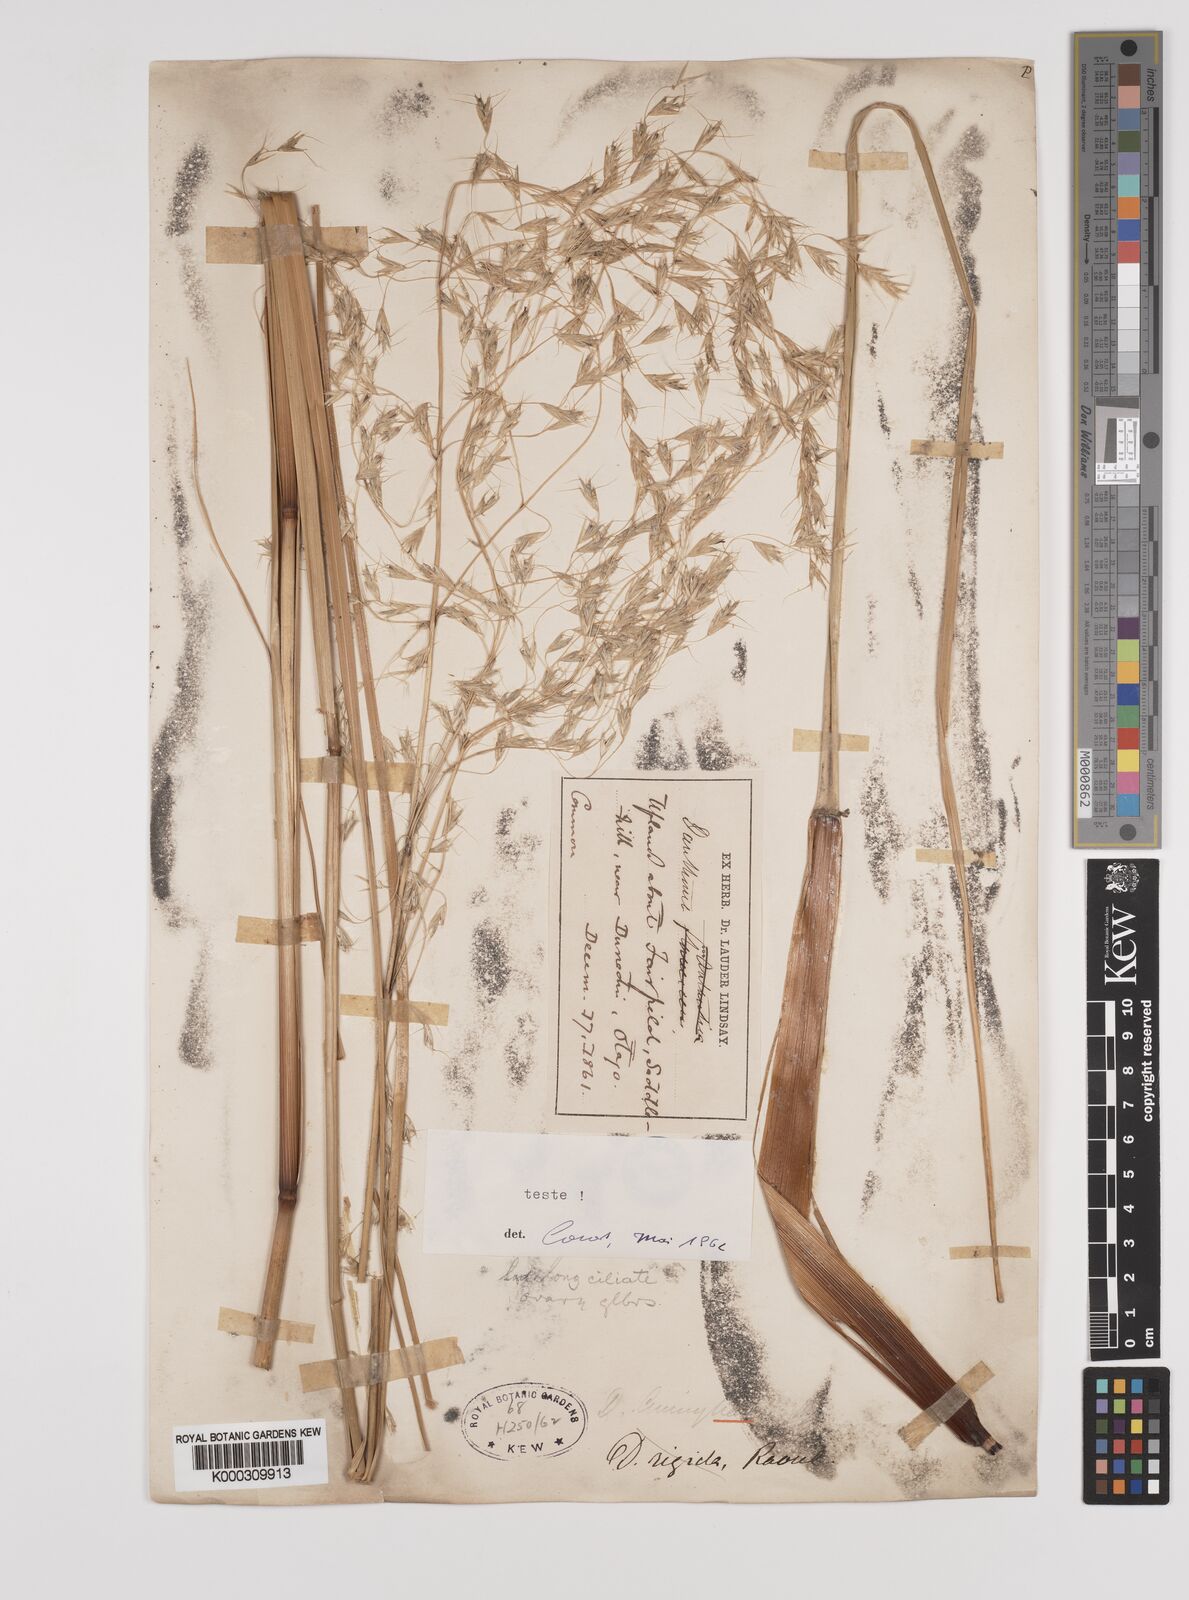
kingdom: Plantae
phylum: Tracheophyta
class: Liliopsida
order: Poales
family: Poaceae
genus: Chionochloa
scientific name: Chionochloa conspicua
